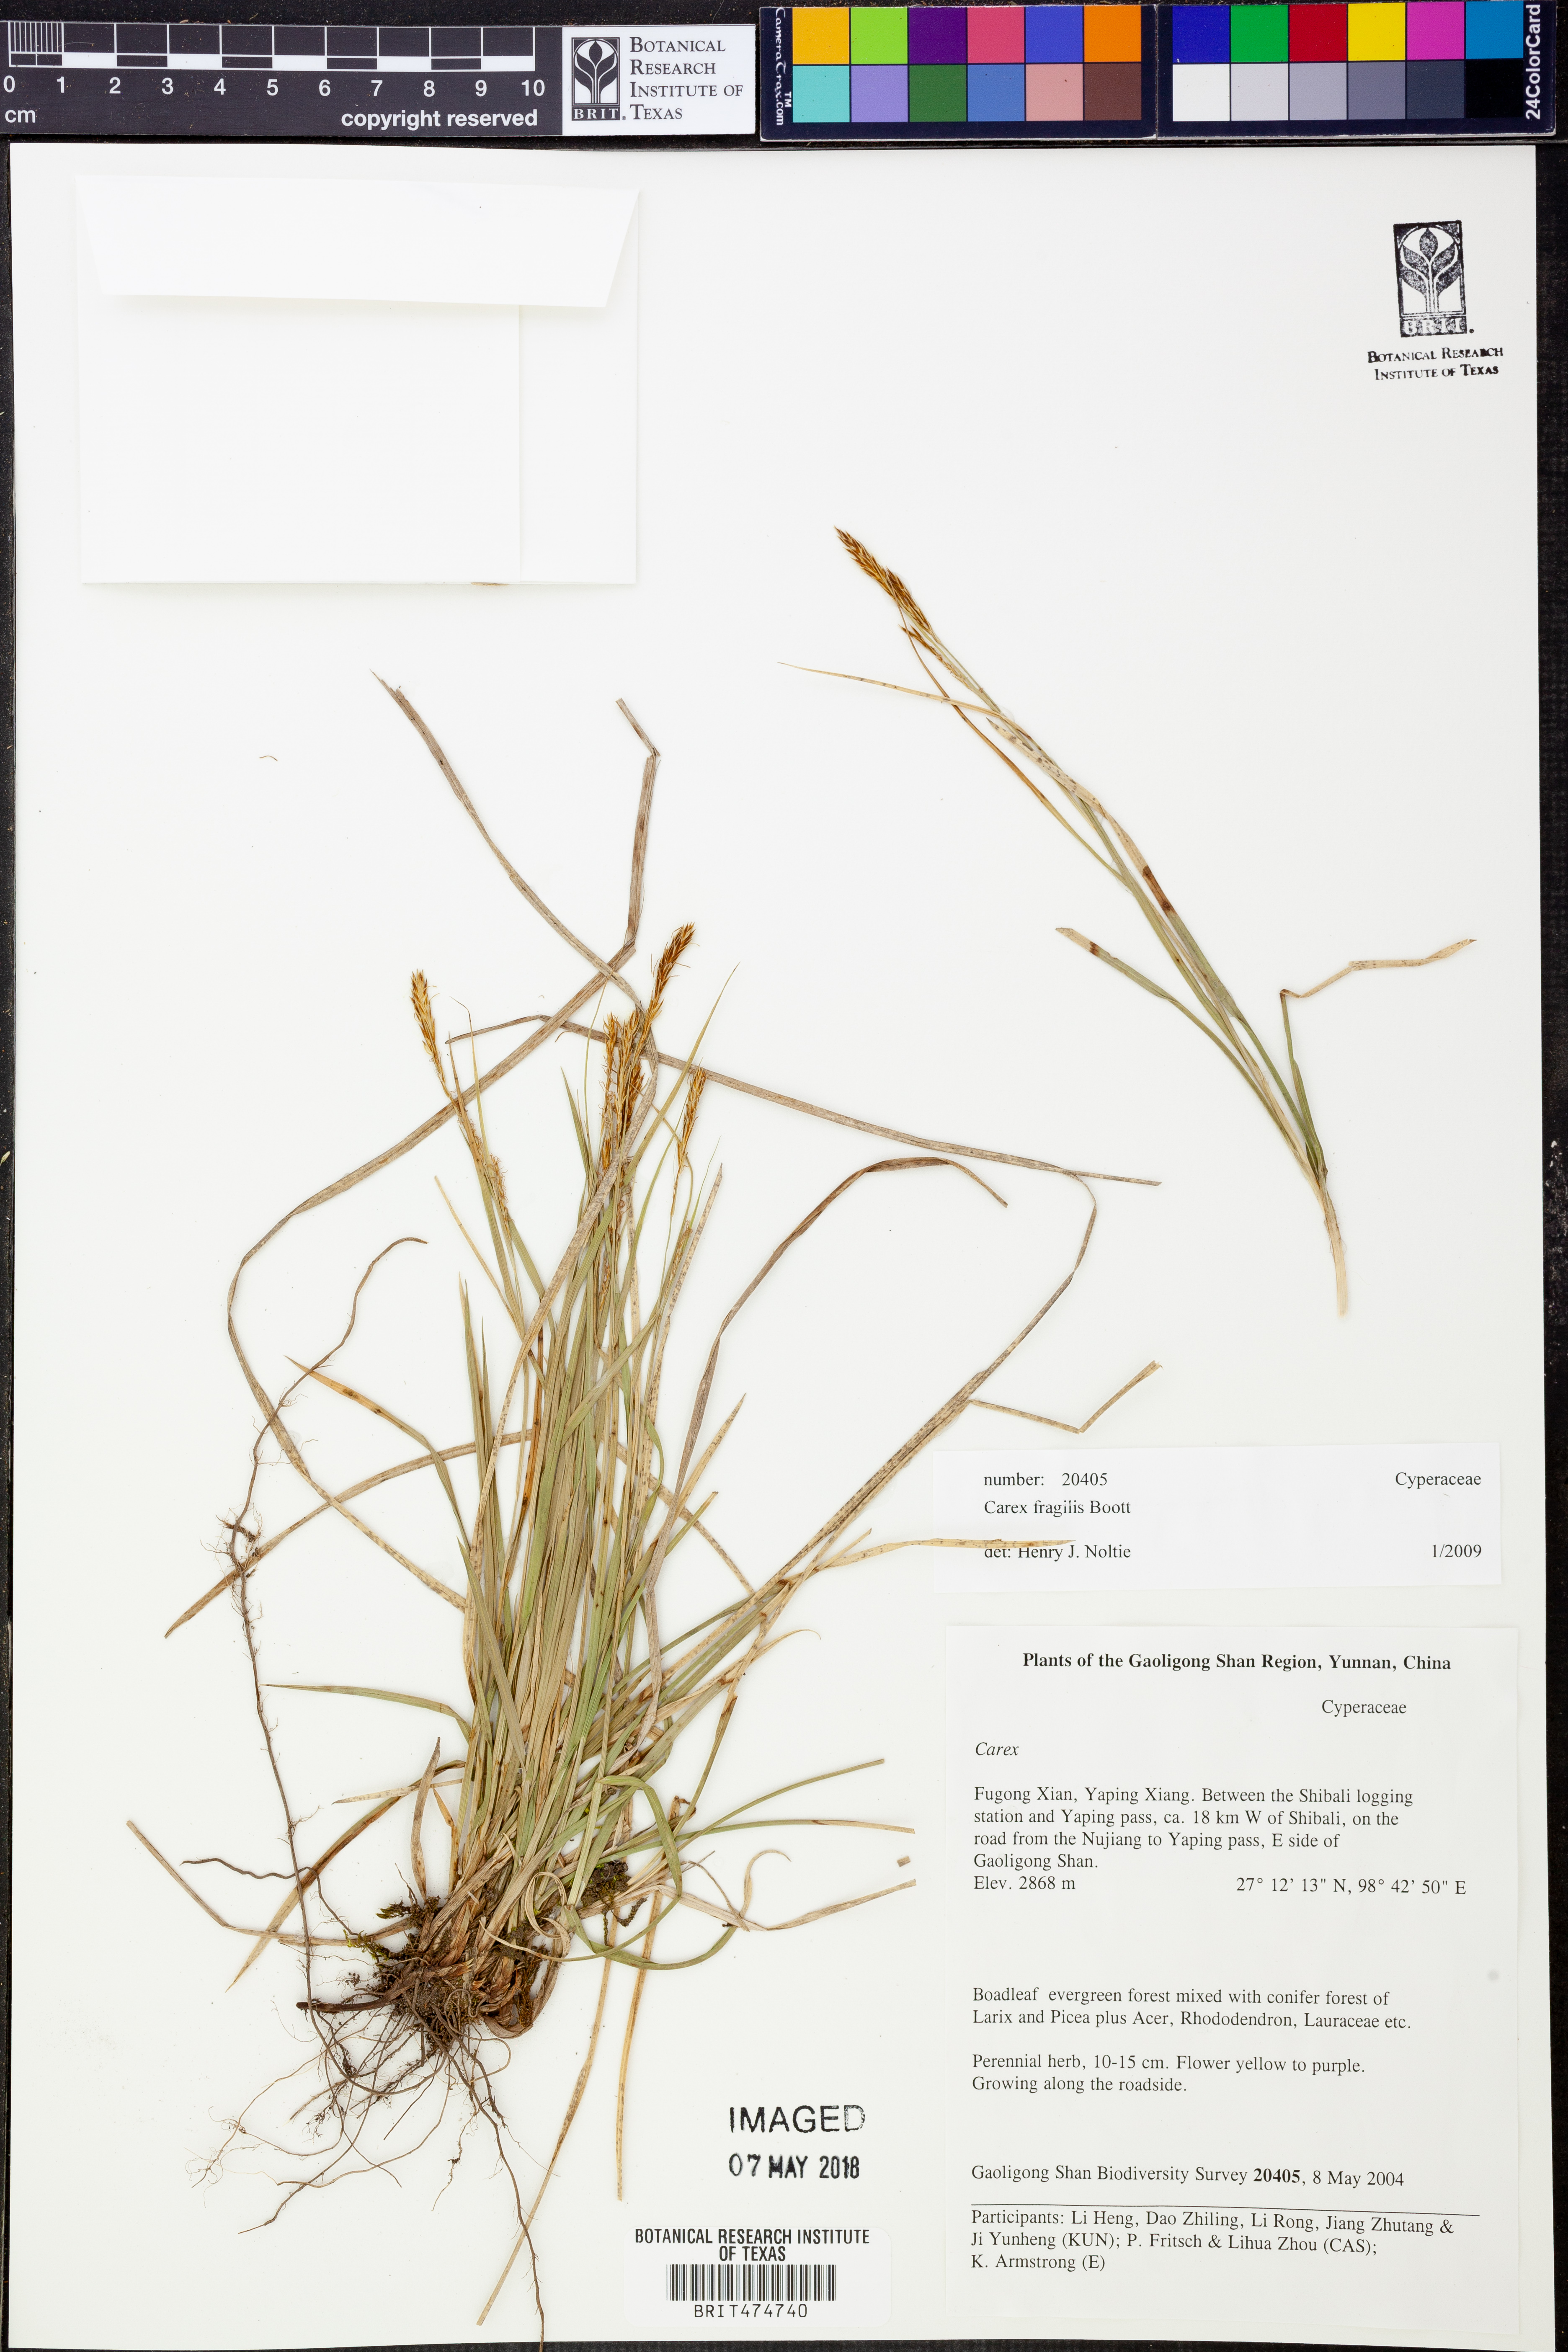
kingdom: Plantae
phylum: Tracheophyta
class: Liliopsida
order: Poales
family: Cyperaceae
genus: Carex
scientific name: Carex fragilis
